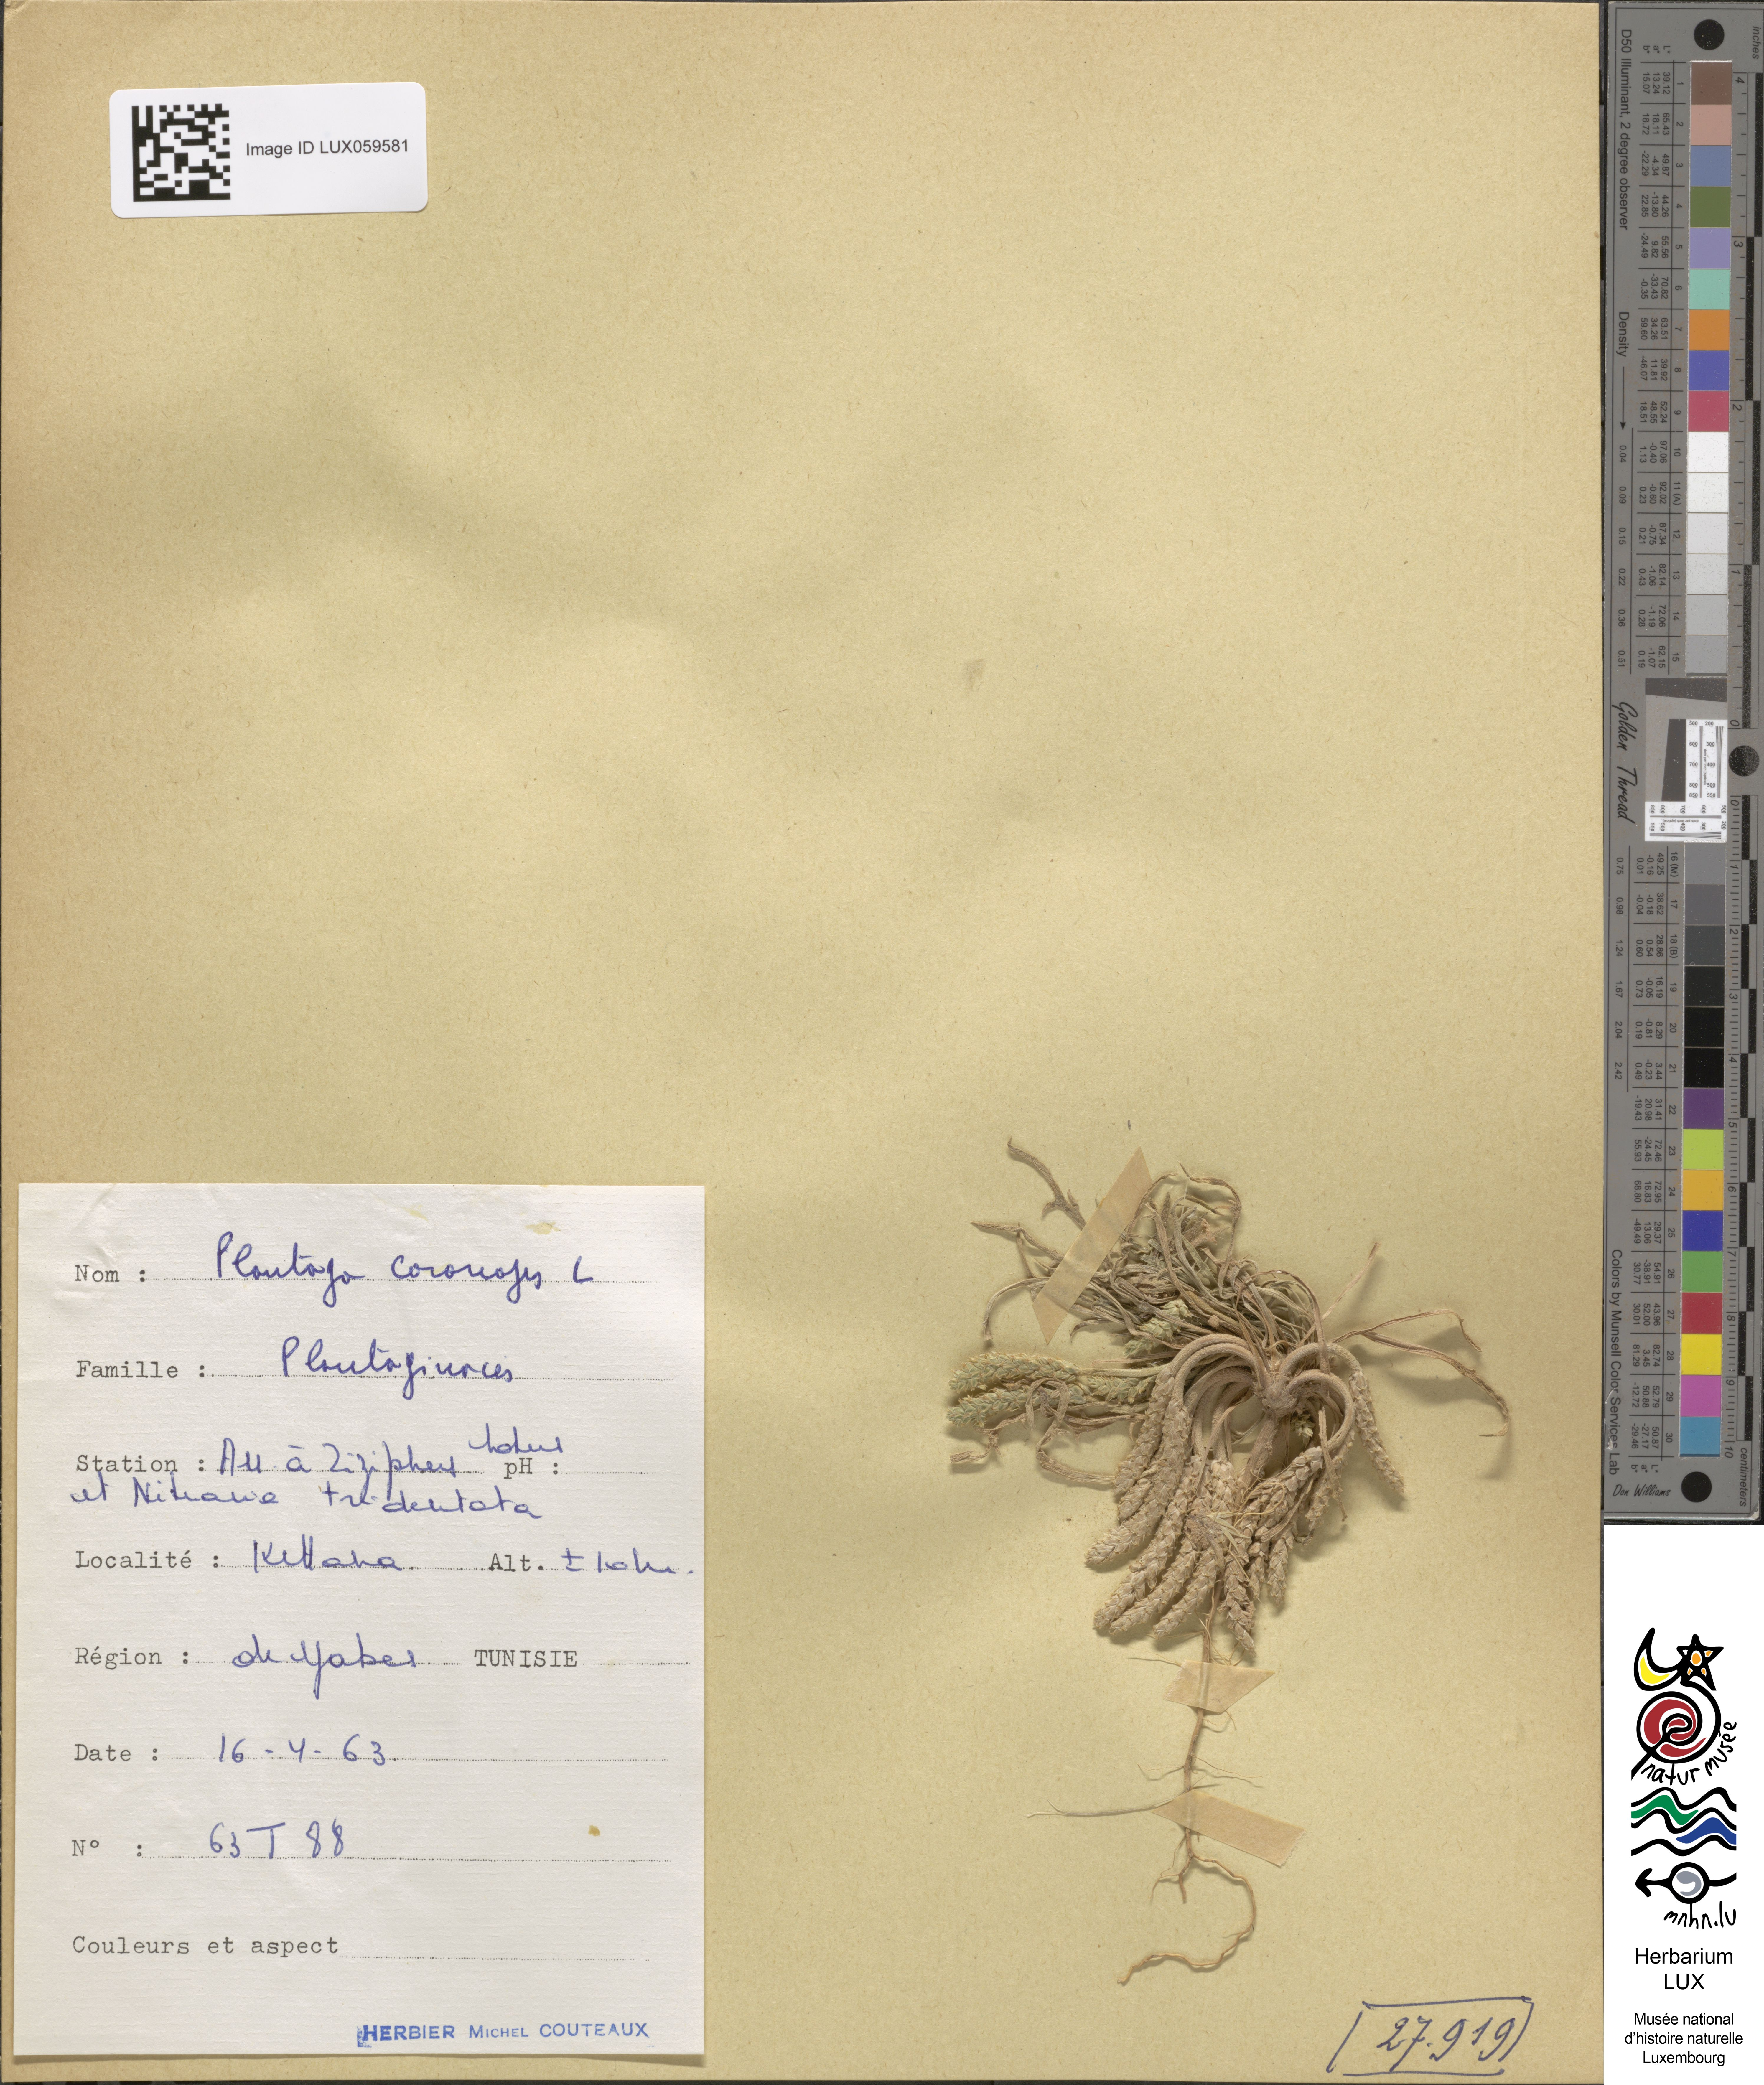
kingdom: Plantae
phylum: Tracheophyta
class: Magnoliopsida
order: Lamiales
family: Plantaginaceae
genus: Plantago
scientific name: Plantago coronopus
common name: Buck's-horn plantain
